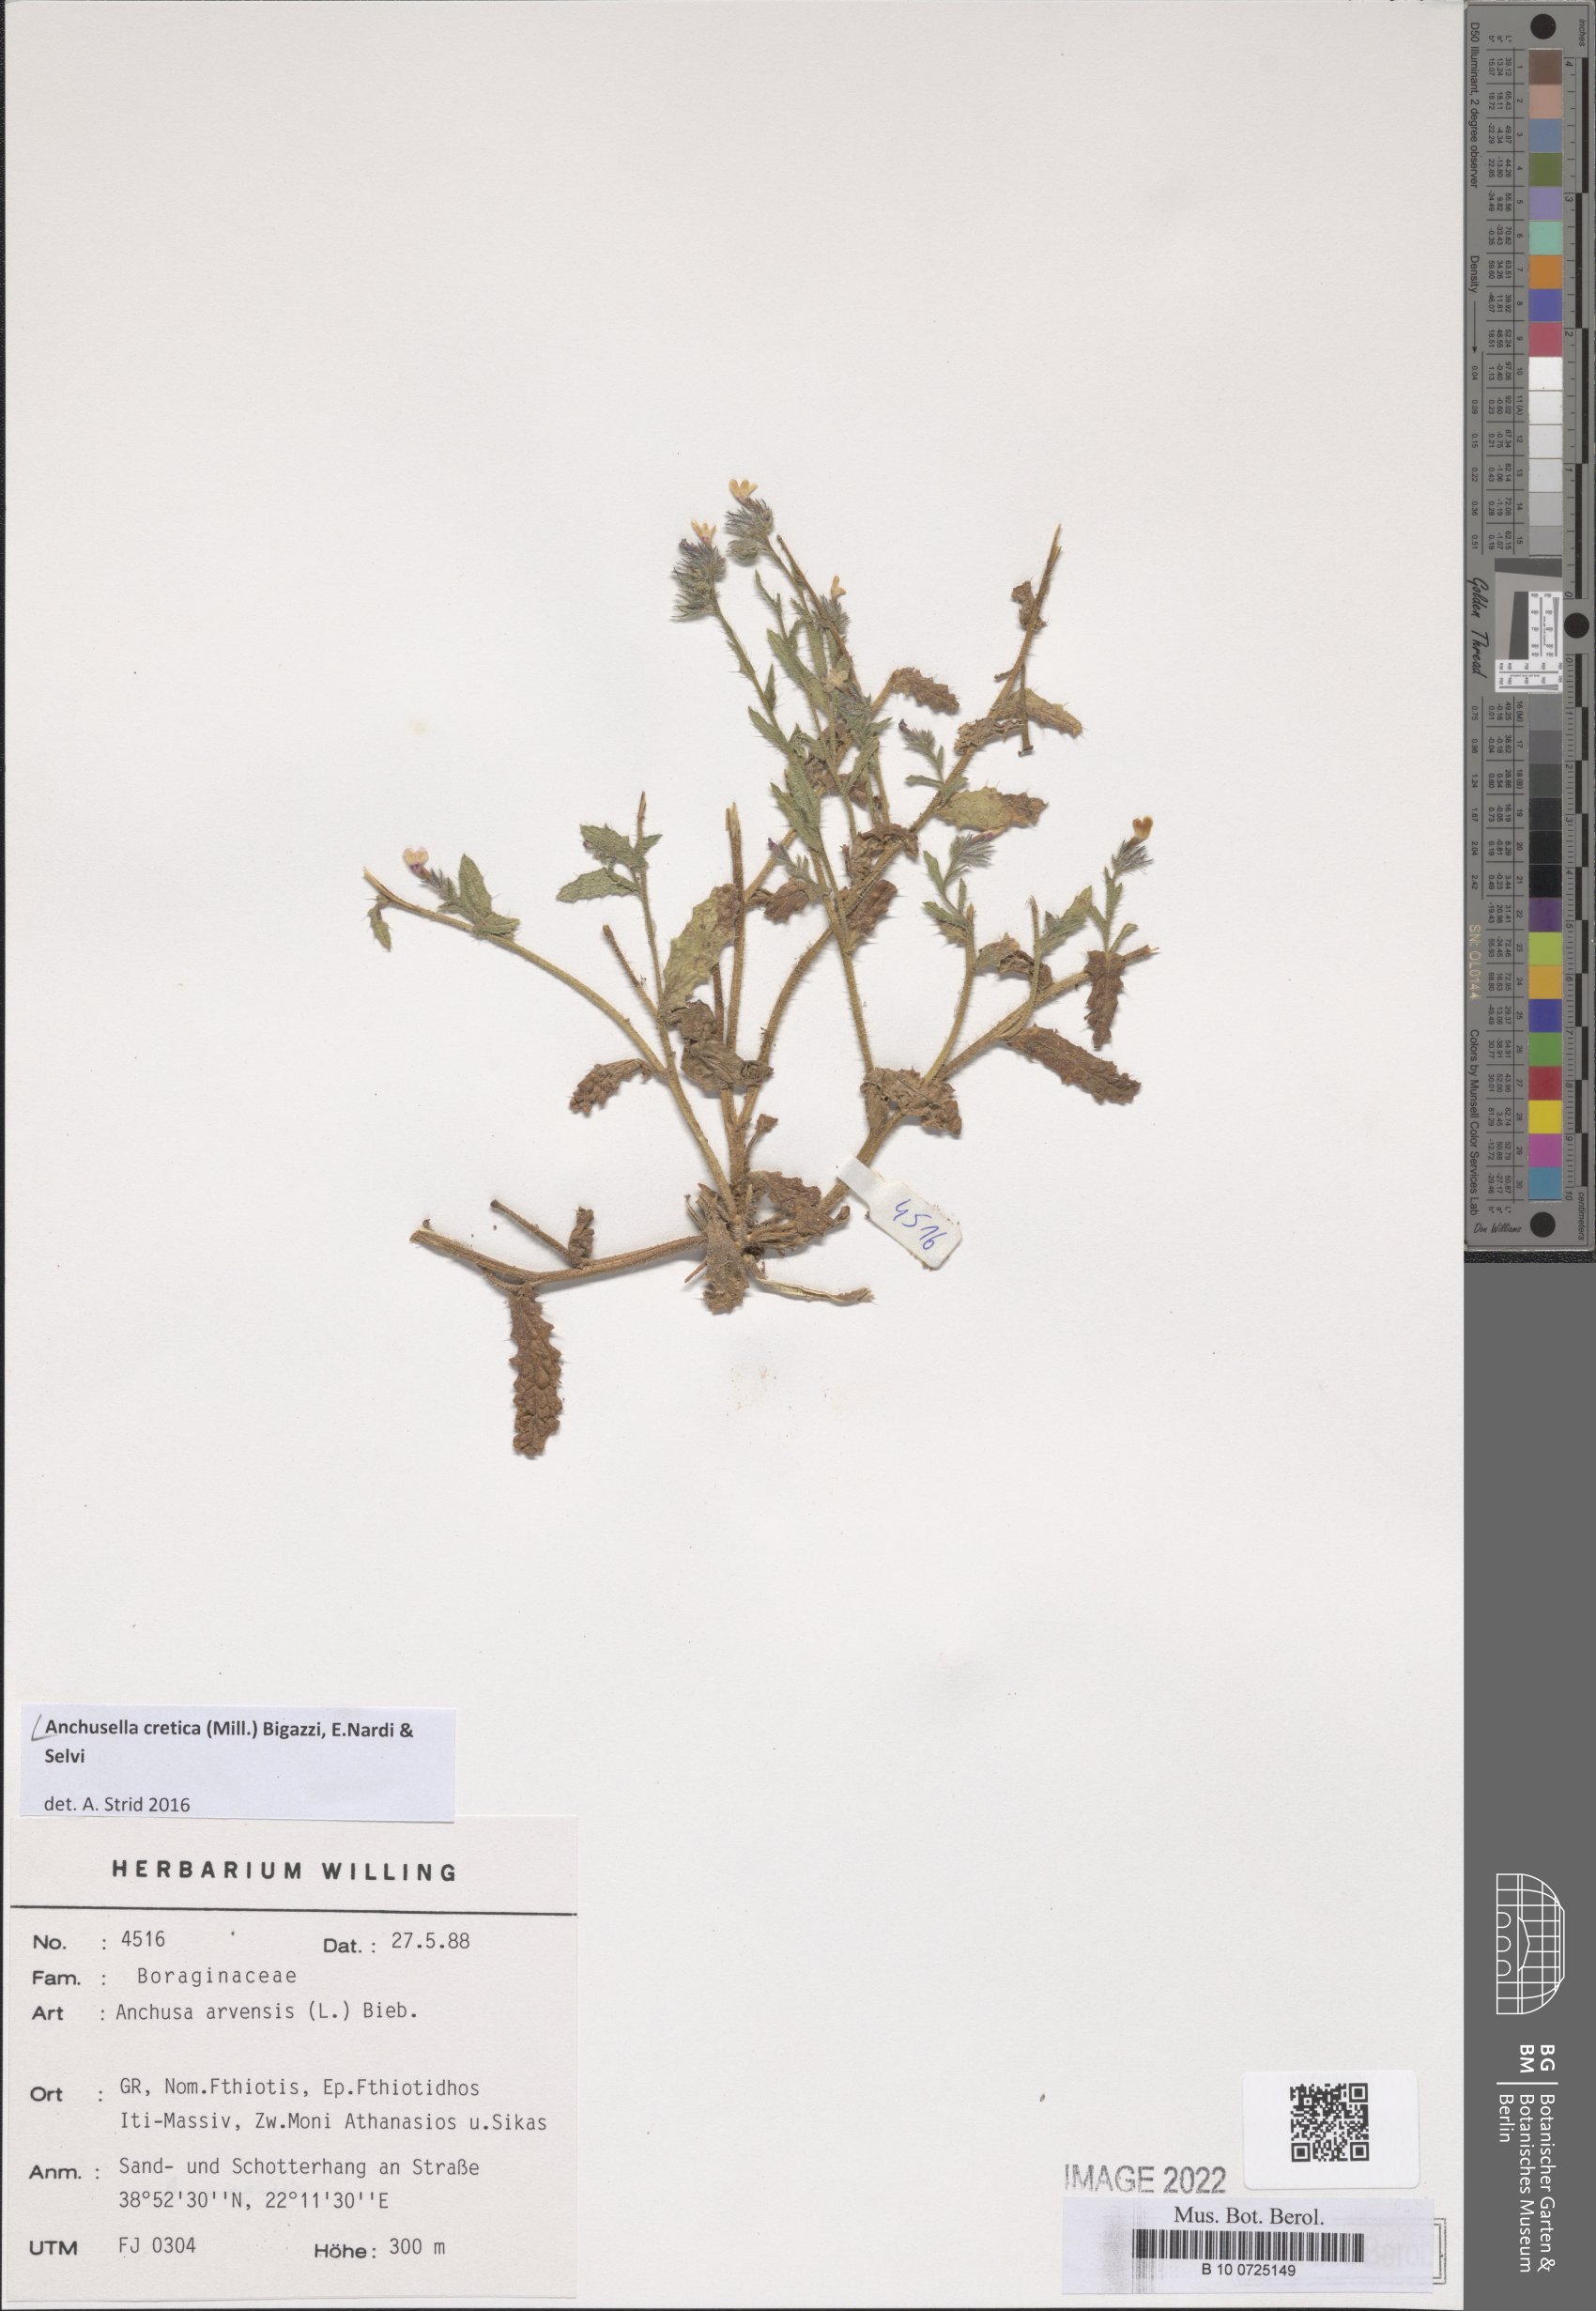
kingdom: Plantae
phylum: Tracheophyta
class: Magnoliopsida
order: Boraginales
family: Boraginaceae
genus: Anchusella
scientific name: Anchusella cretica
